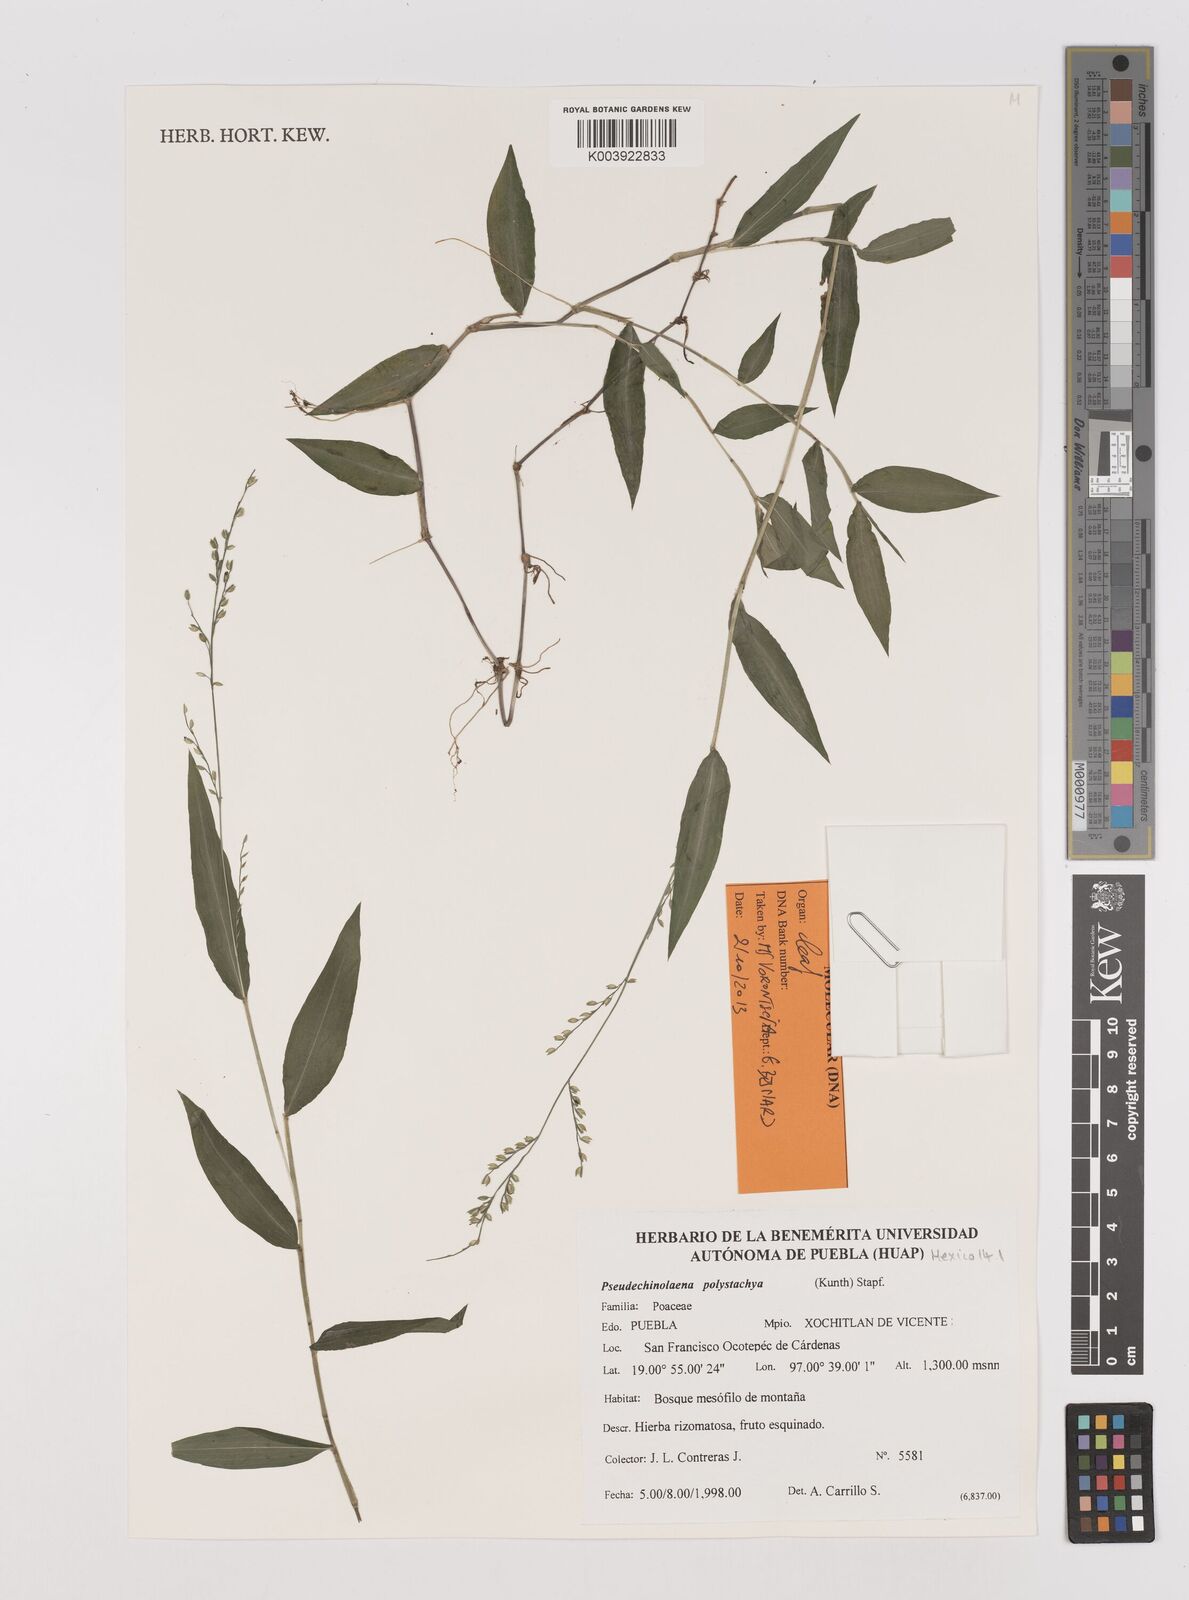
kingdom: Plantae
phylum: Tracheophyta
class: Liliopsida
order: Poales
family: Poaceae
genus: Pseudechinolaena
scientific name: Pseudechinolaena polystachya
